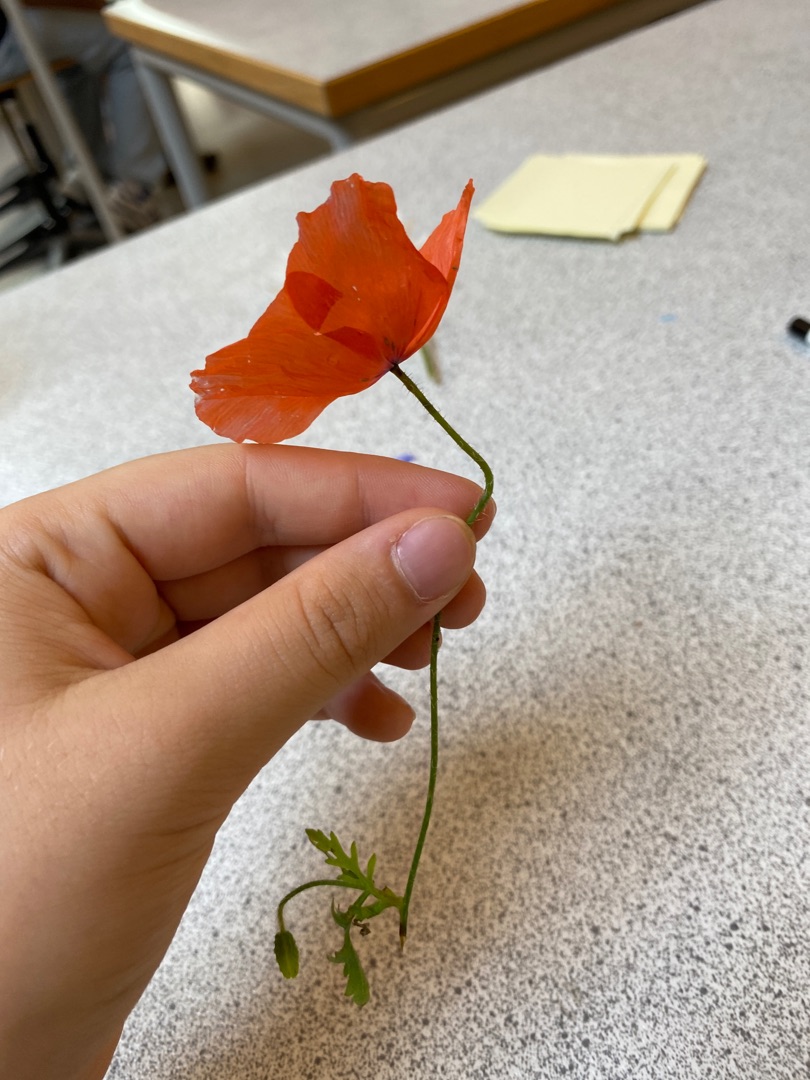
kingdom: Plantae
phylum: Tracheophyta
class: Magnoliopsida
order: Ranunculales
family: Papaveraceae
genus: Papaver
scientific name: Papaver dubium
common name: Gærde-valmue
